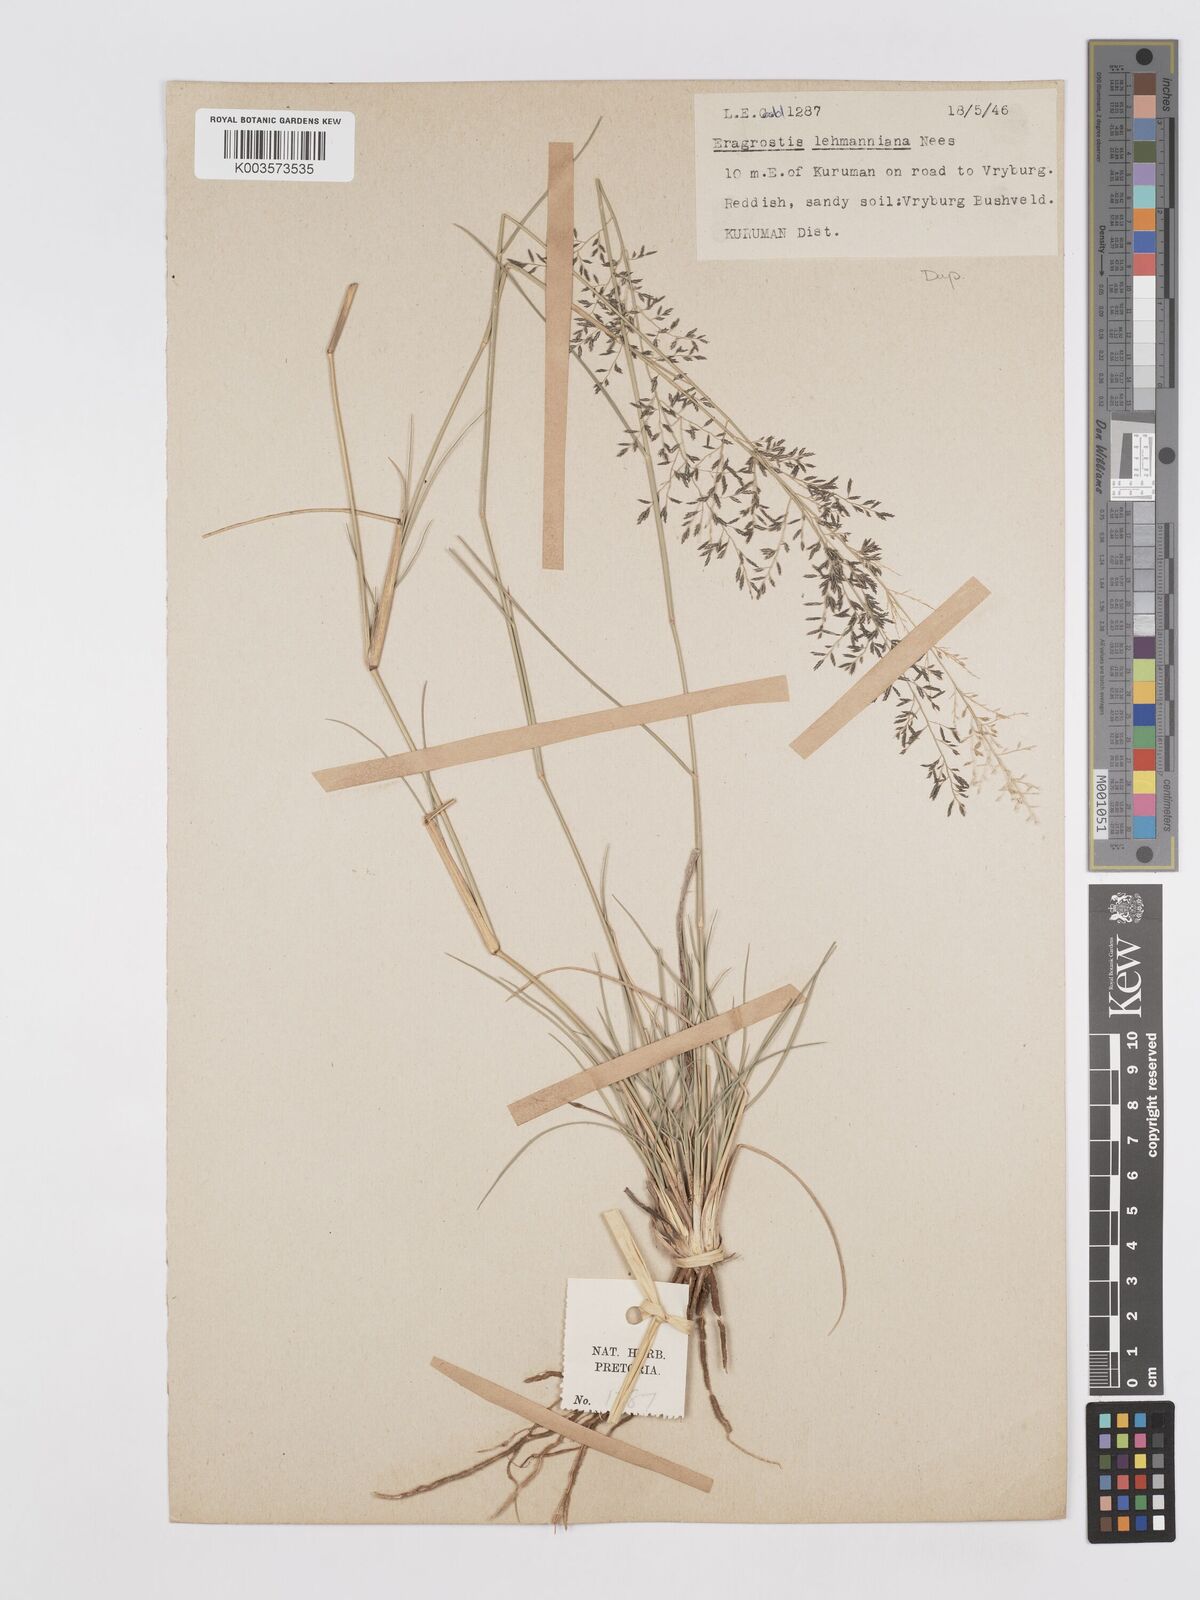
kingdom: Plantae
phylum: Tracheophyta
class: Liliopsida
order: Poales
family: Poaceae
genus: Eragrostis
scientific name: Eragrostis lehmanniana
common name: Lehmann lovegrass
